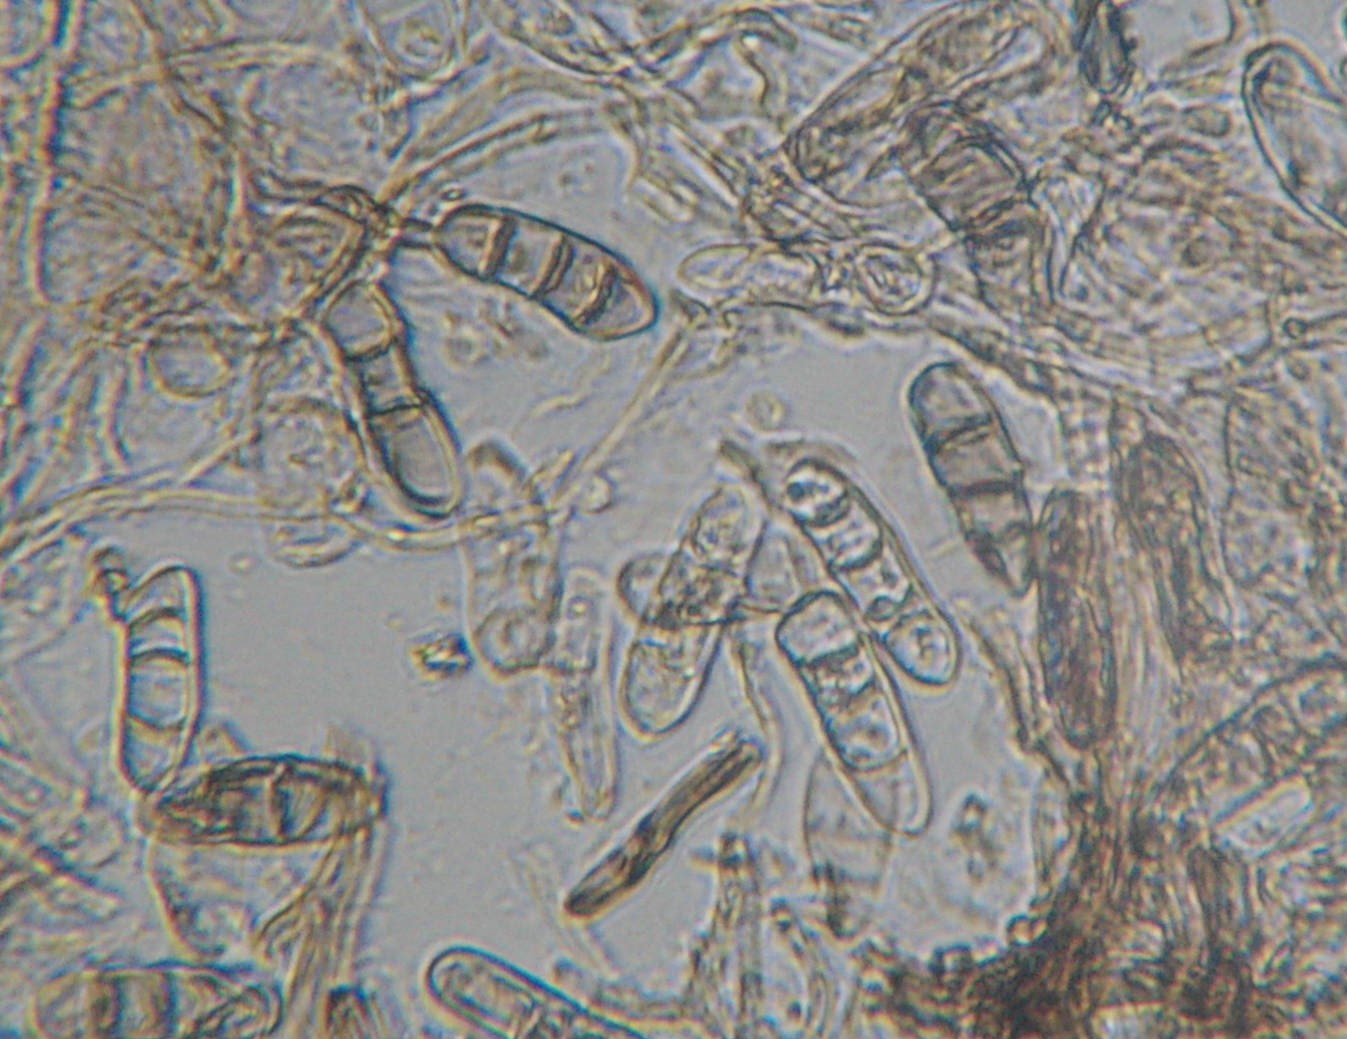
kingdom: Fungi
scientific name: Fungi
